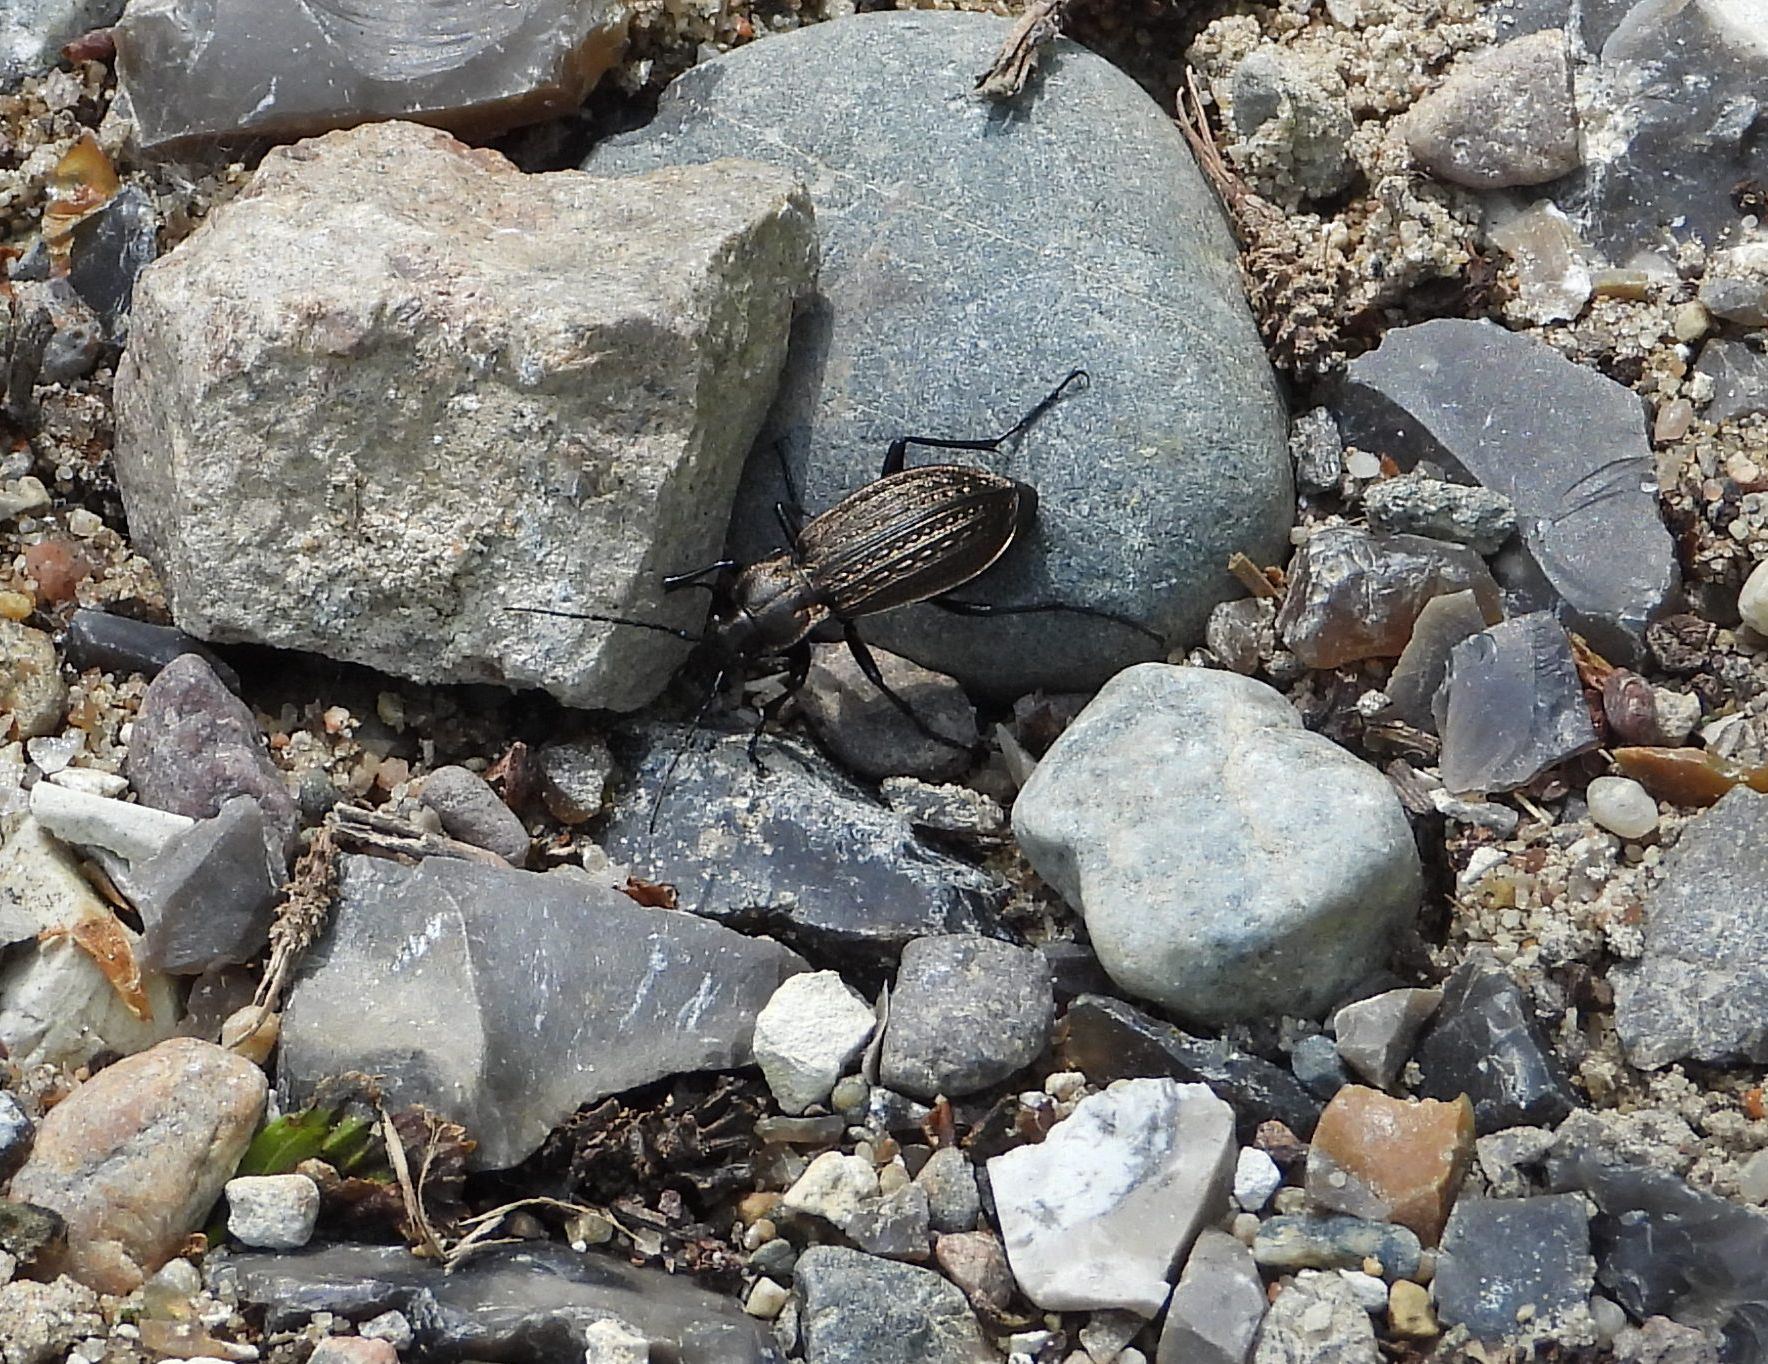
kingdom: Animalia
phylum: Arthropoda
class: Insecta
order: Coleoptera
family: Carabidae
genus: Carabus
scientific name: Carabus granulatus
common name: Kornet løber
